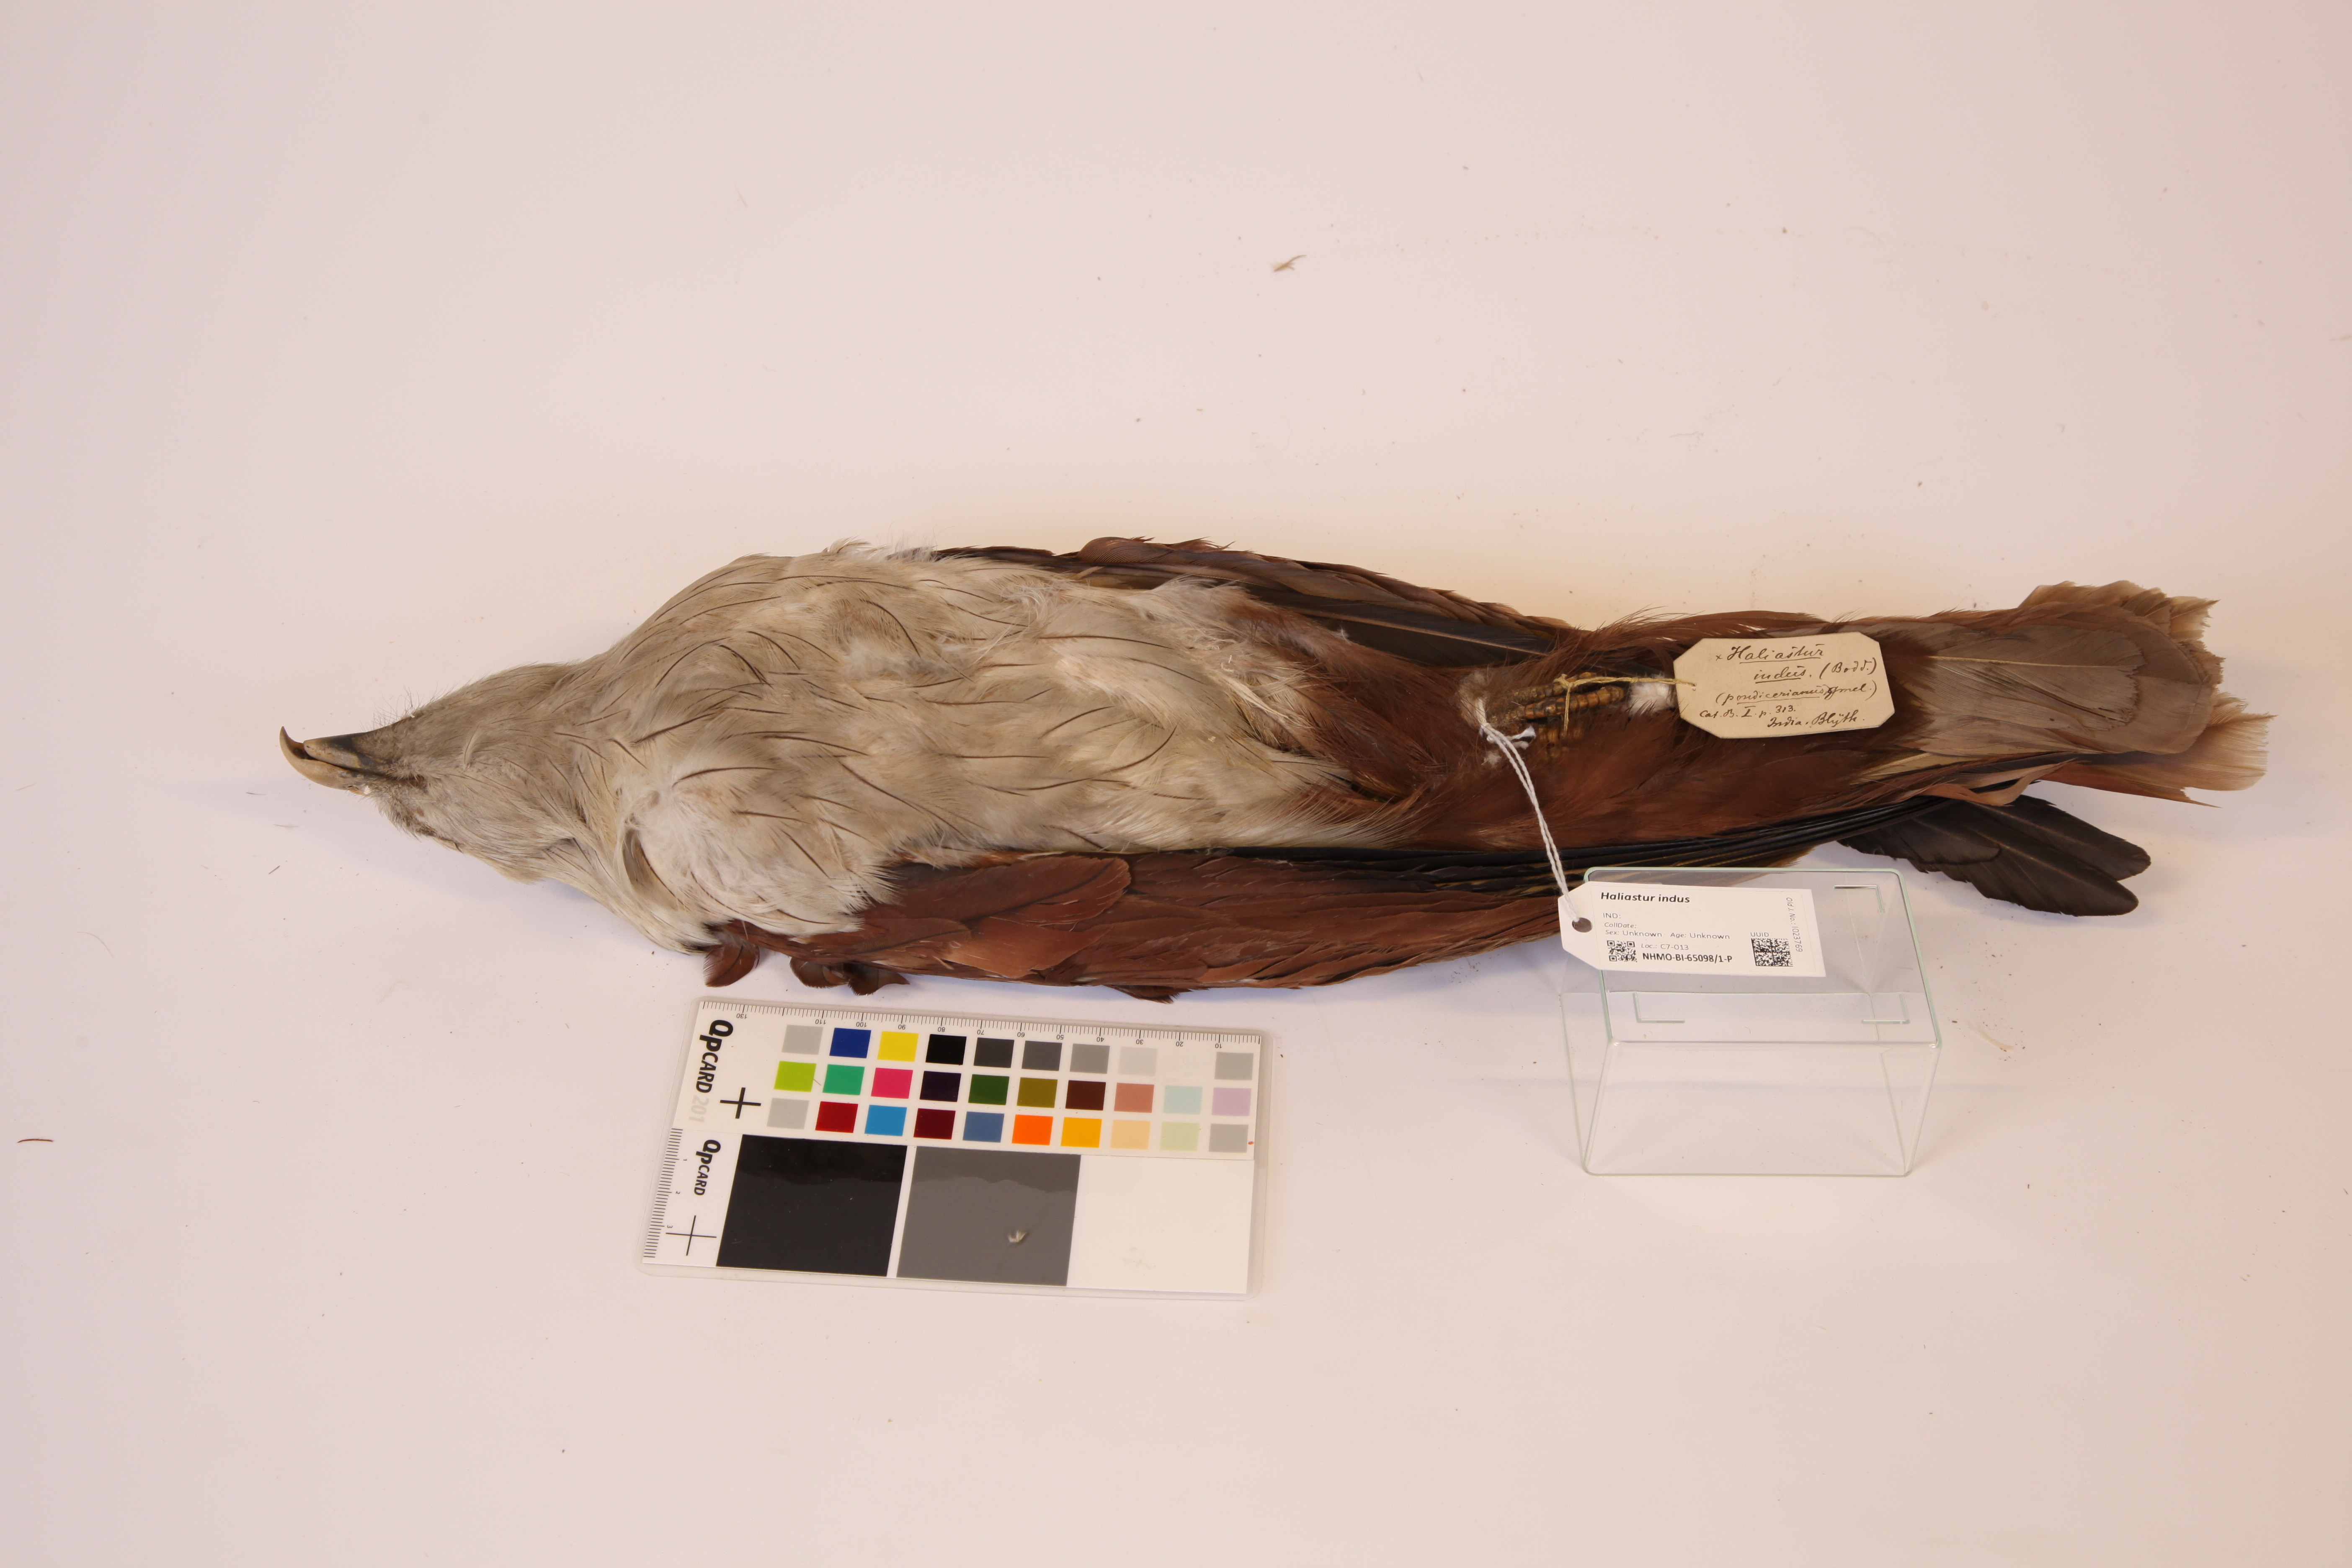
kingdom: Animalia
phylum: Chordata
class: Aves
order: Accipitriformes
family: Accipitridae
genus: Haliastur
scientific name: Haliastur indus
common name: Brahminy kite
